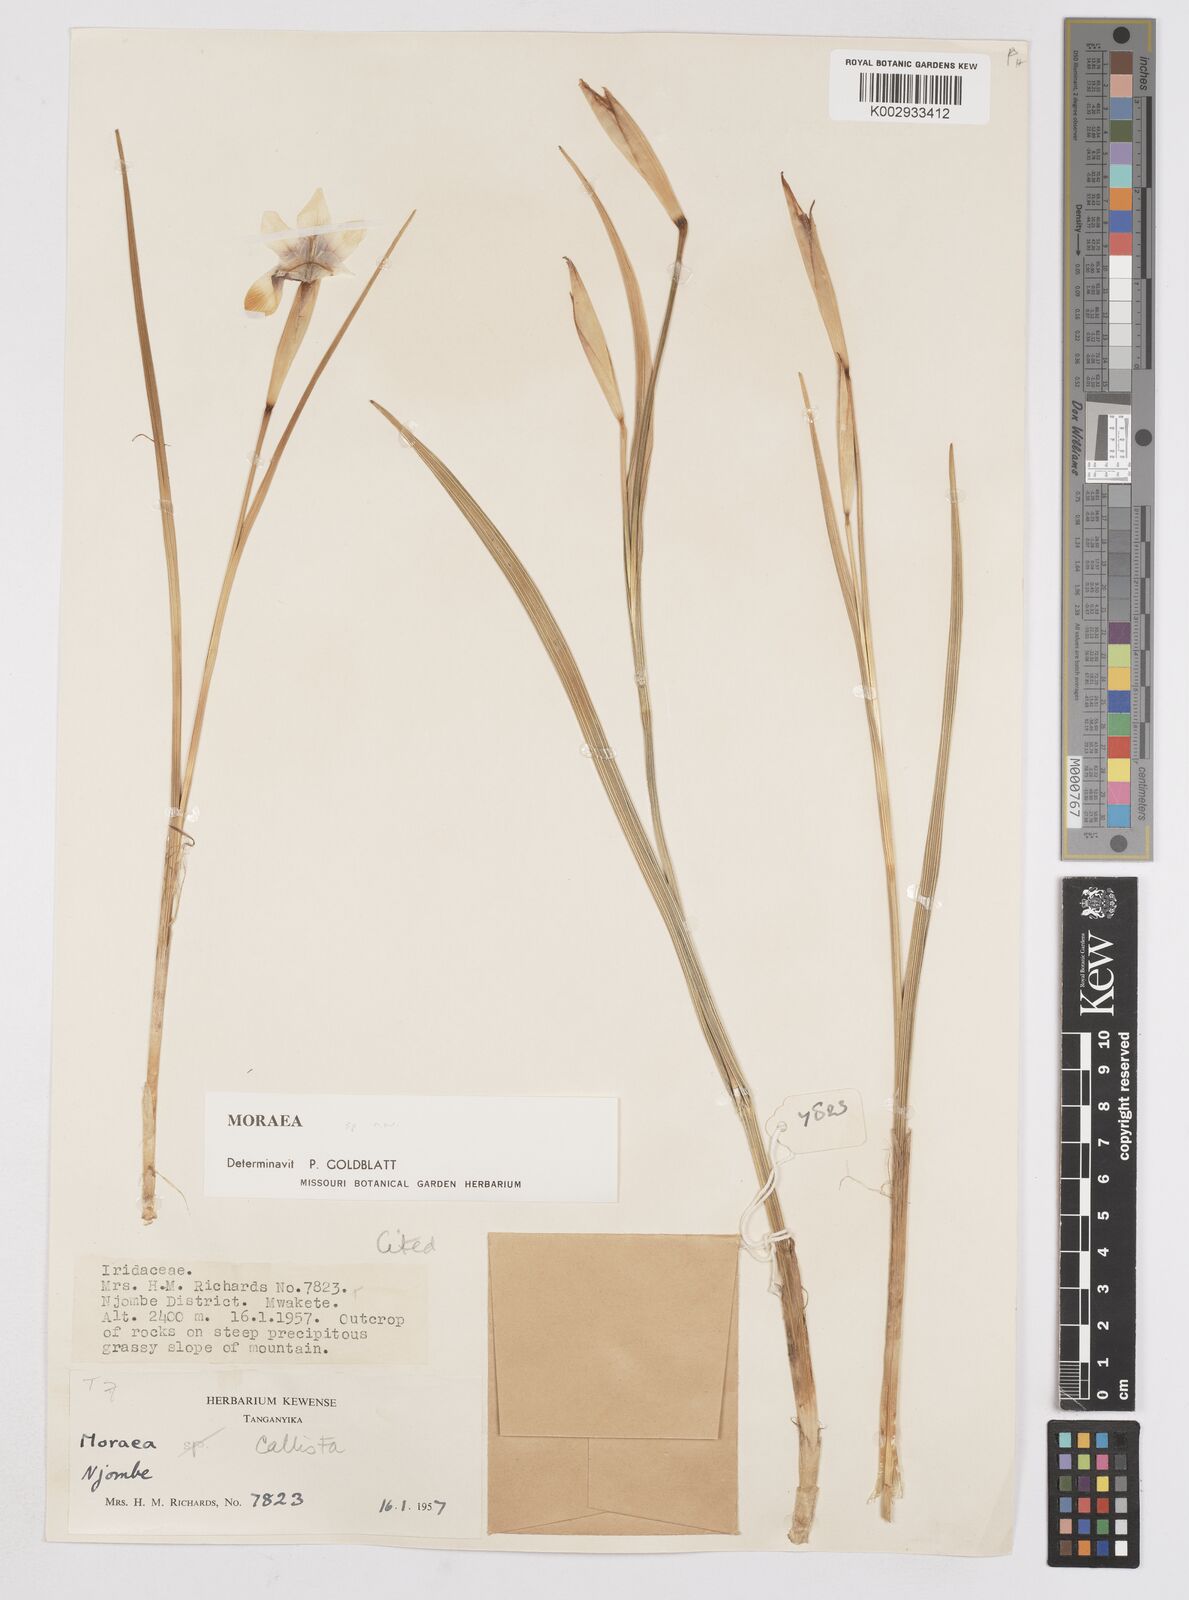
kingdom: Plantae
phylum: Tracheophyta
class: Liliopsida
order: Asparagales
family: Iridaceae
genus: Moraea
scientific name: Moraea callista
